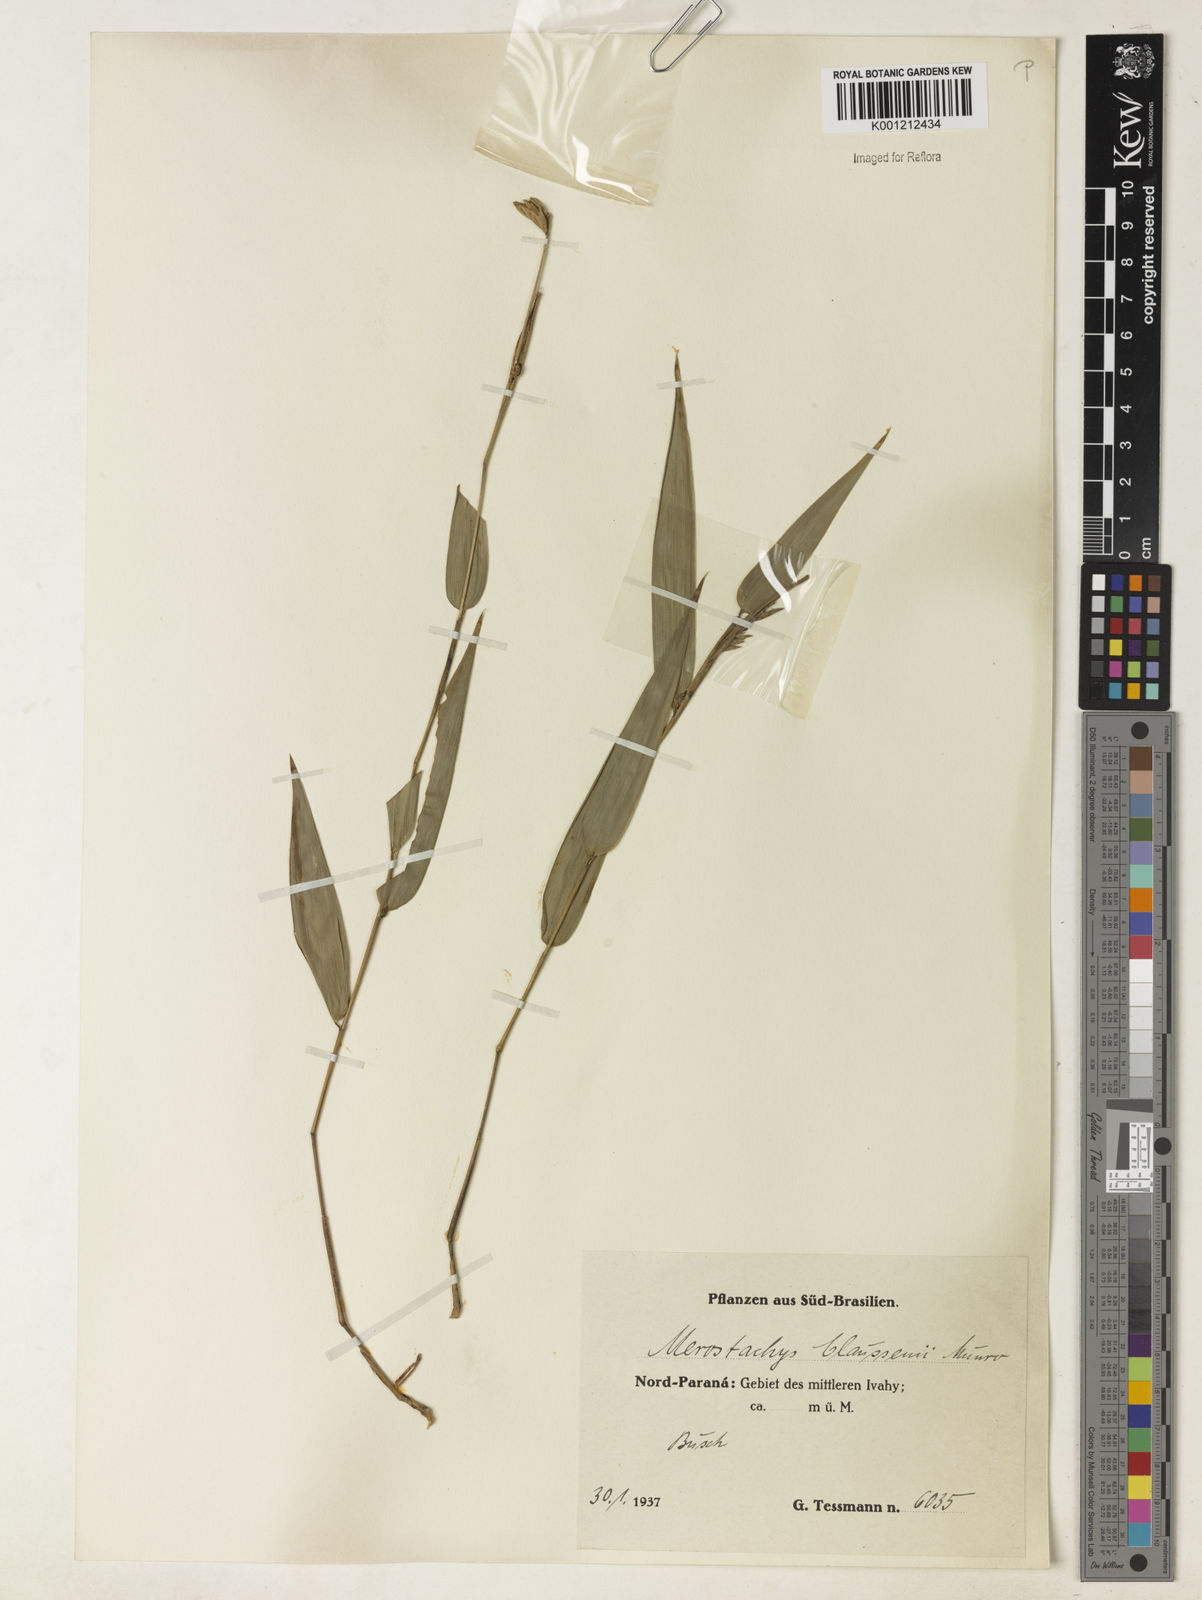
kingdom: Plantae
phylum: Tracheophyta
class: Liliopsida
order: Poales
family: Poaceae
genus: Merostachys
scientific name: Merostachys multiramea
